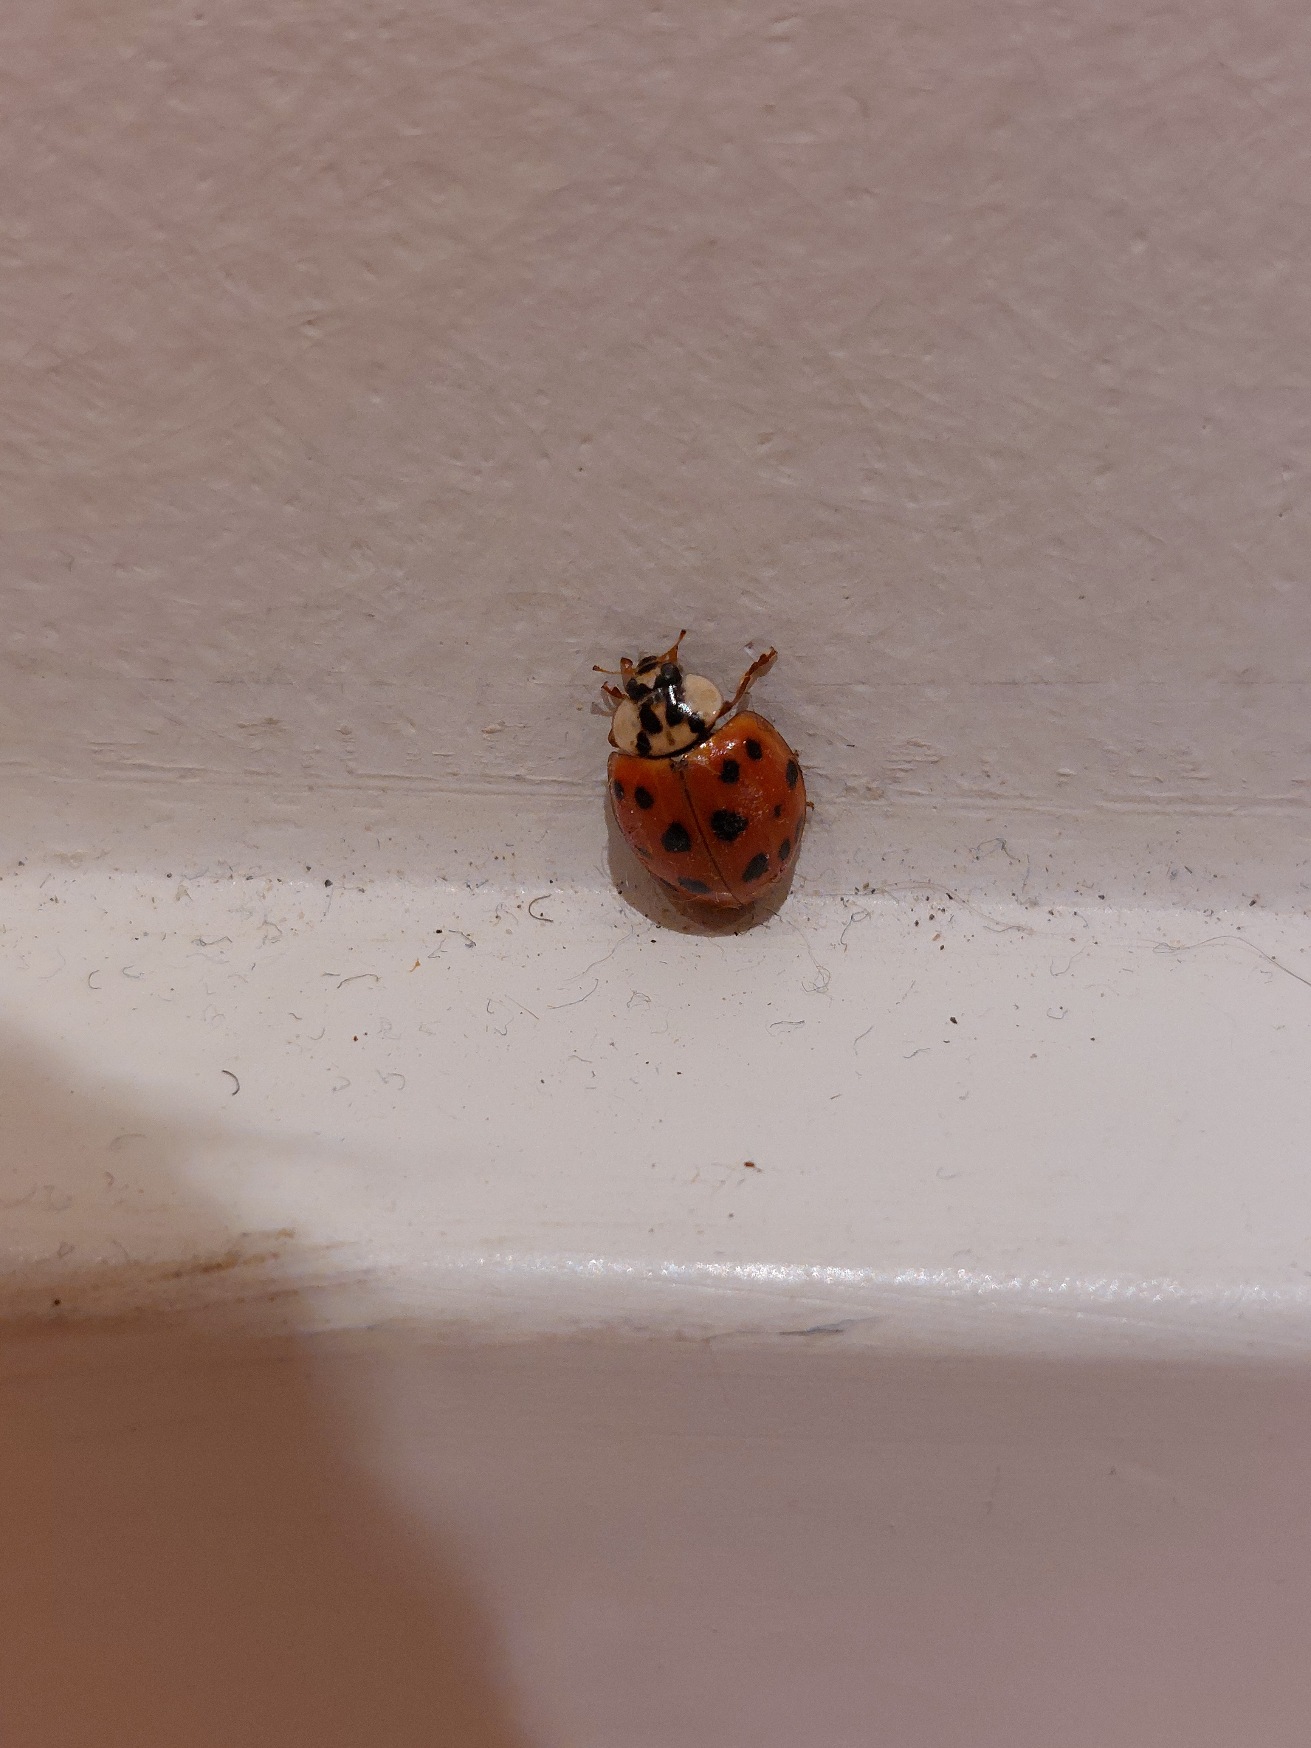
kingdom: Animalia
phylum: Arthropoda
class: Insecta
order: Coleoptera
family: Coccinellidae
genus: Harmonia
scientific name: Harmonia axyridis
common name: Harlekinmariehøne
